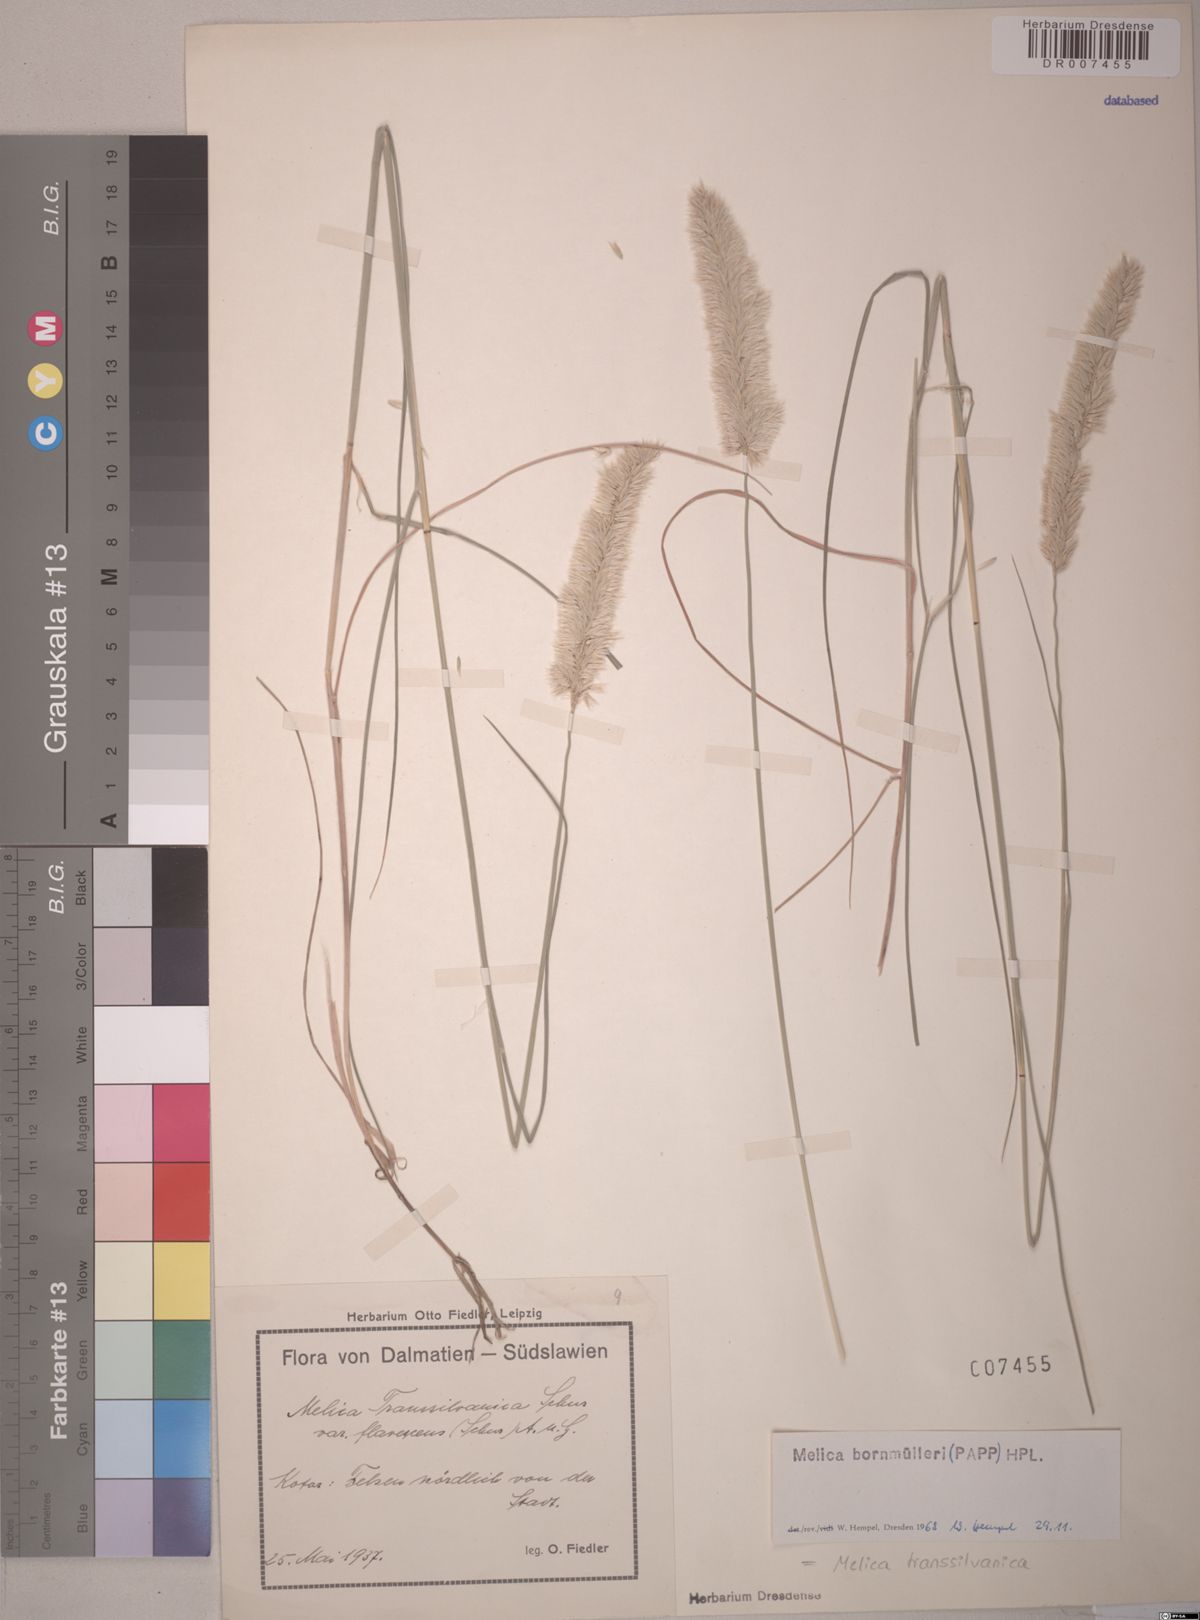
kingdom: Plantae
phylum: Tracheophyta
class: Liliopsida
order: Poales
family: Poaceae
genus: Melica
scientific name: Melica transsilvanica
